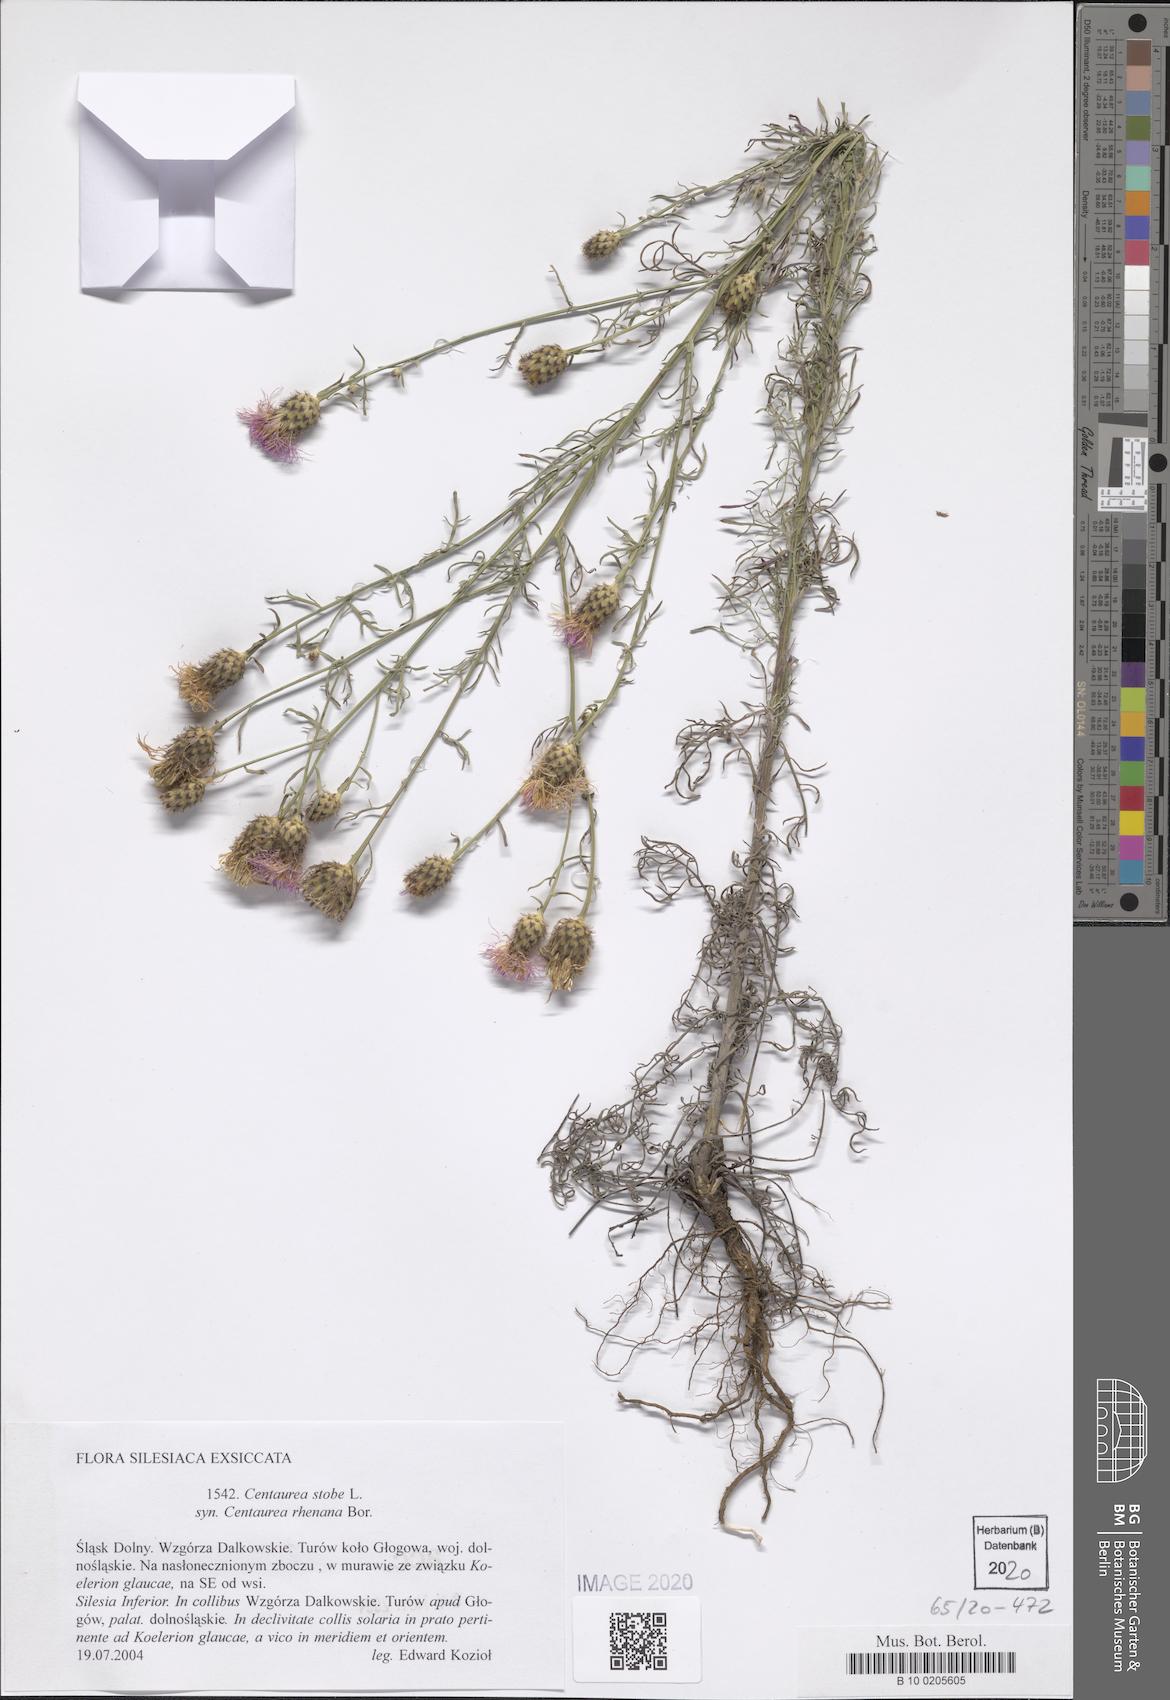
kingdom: Plantae
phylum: Tracheophyta
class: Magnoliopsida
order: Asterales
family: Asteraceae
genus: Centaurea
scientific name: Centaurea stoebe
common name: Spotted knapweed
